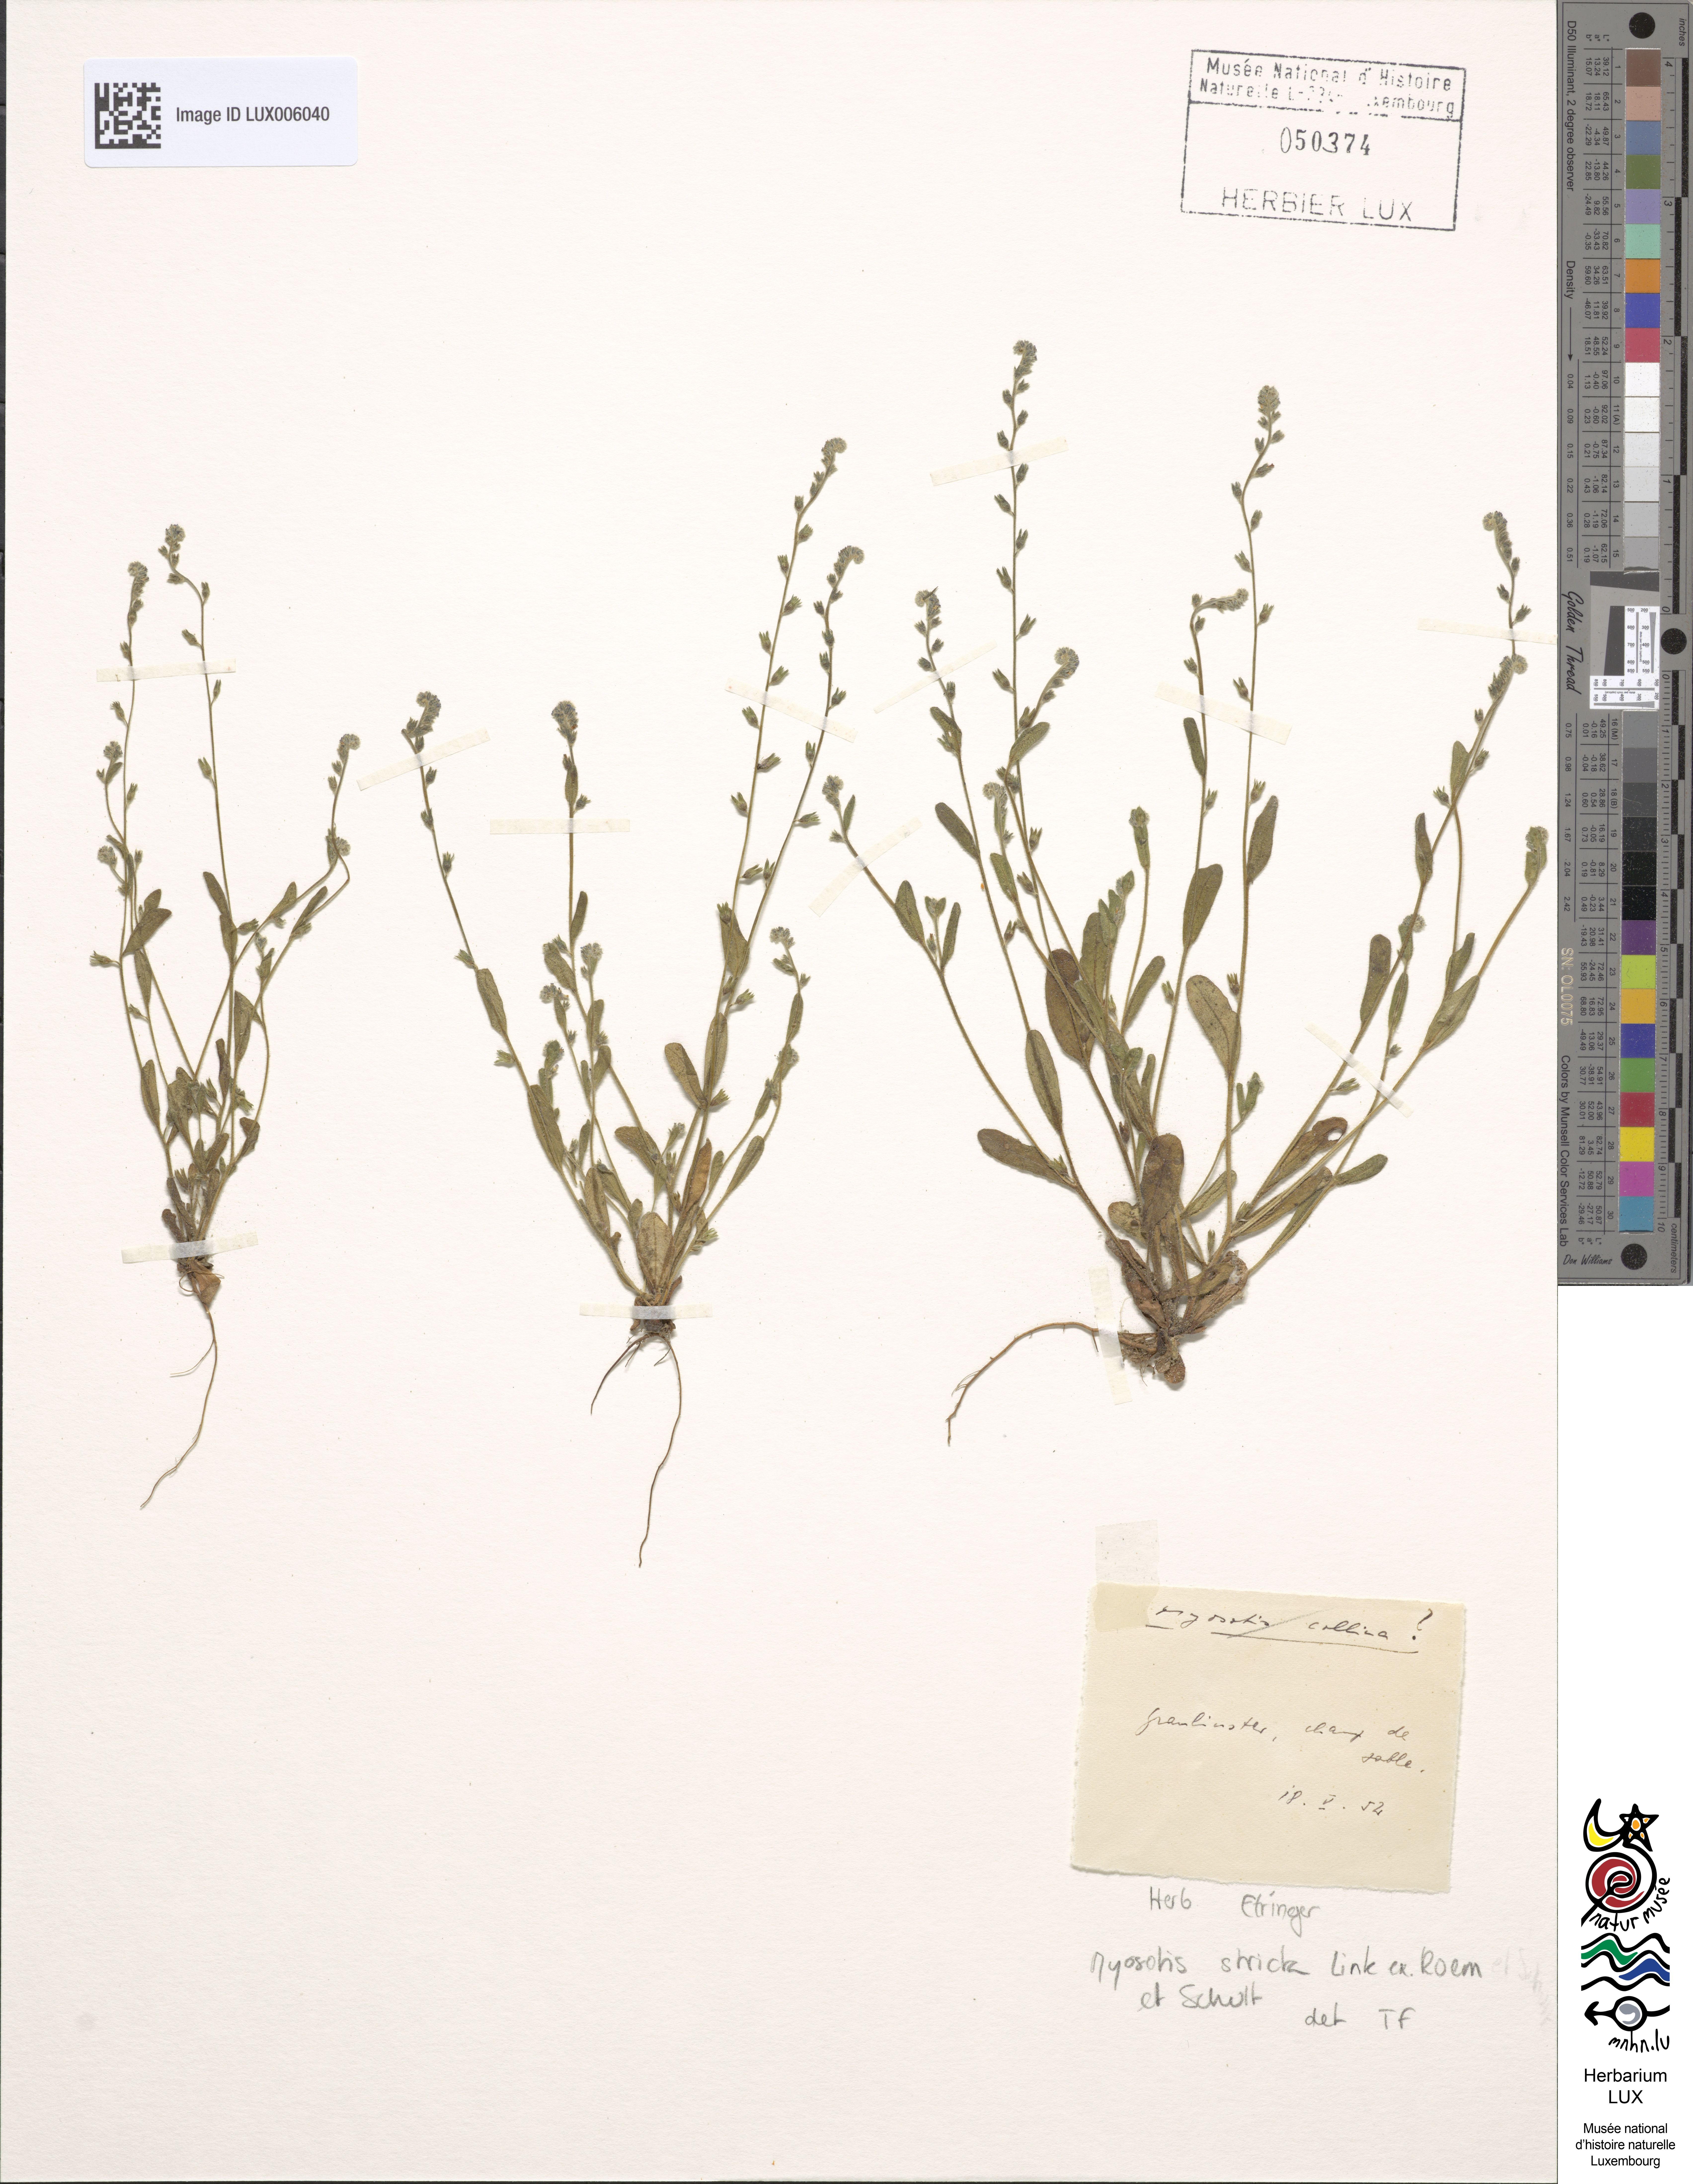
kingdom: Plantae
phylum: Tracheophyta
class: Magnoliopsida
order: Boraginales
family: Boraginaceae
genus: Myosotis
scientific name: Myosotis stricta
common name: Strict forget-me-not
